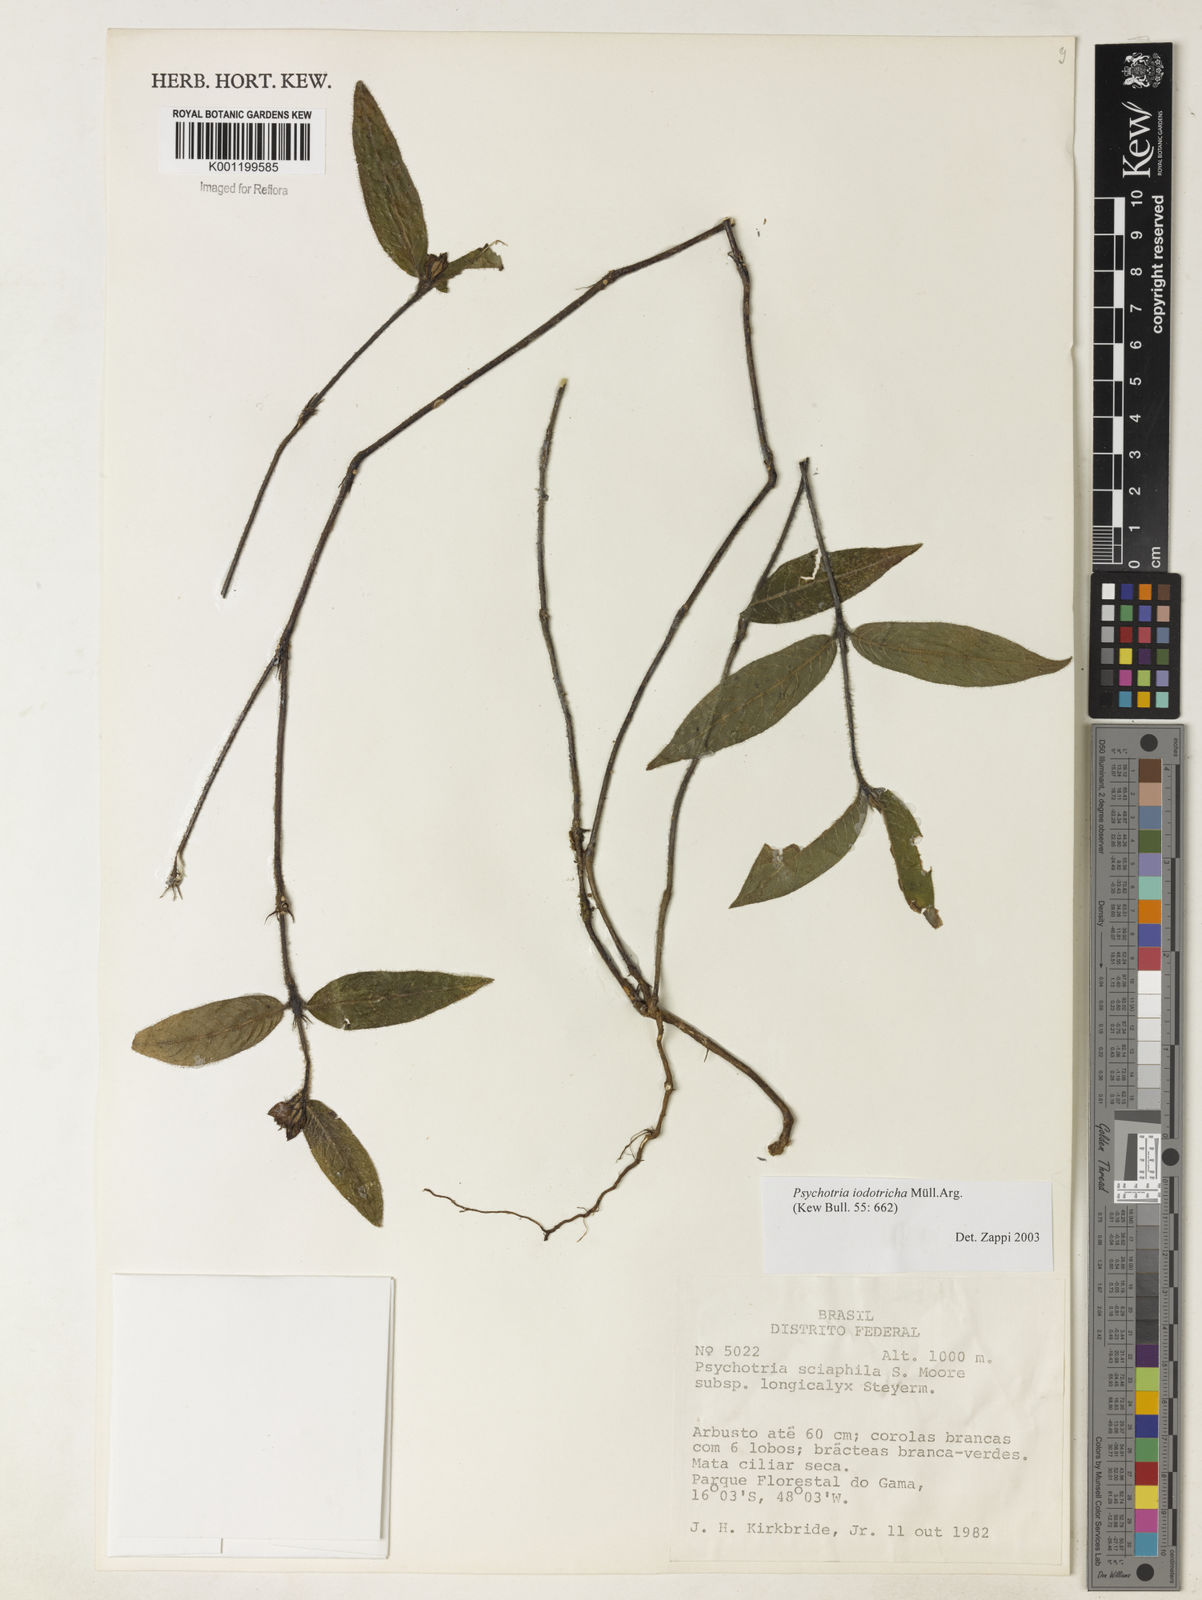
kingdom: Plantae
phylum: Tracheophyta
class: Magnoliopsida
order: Gentianales
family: Rubiaceae
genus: Psychotria
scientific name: Psychotria
